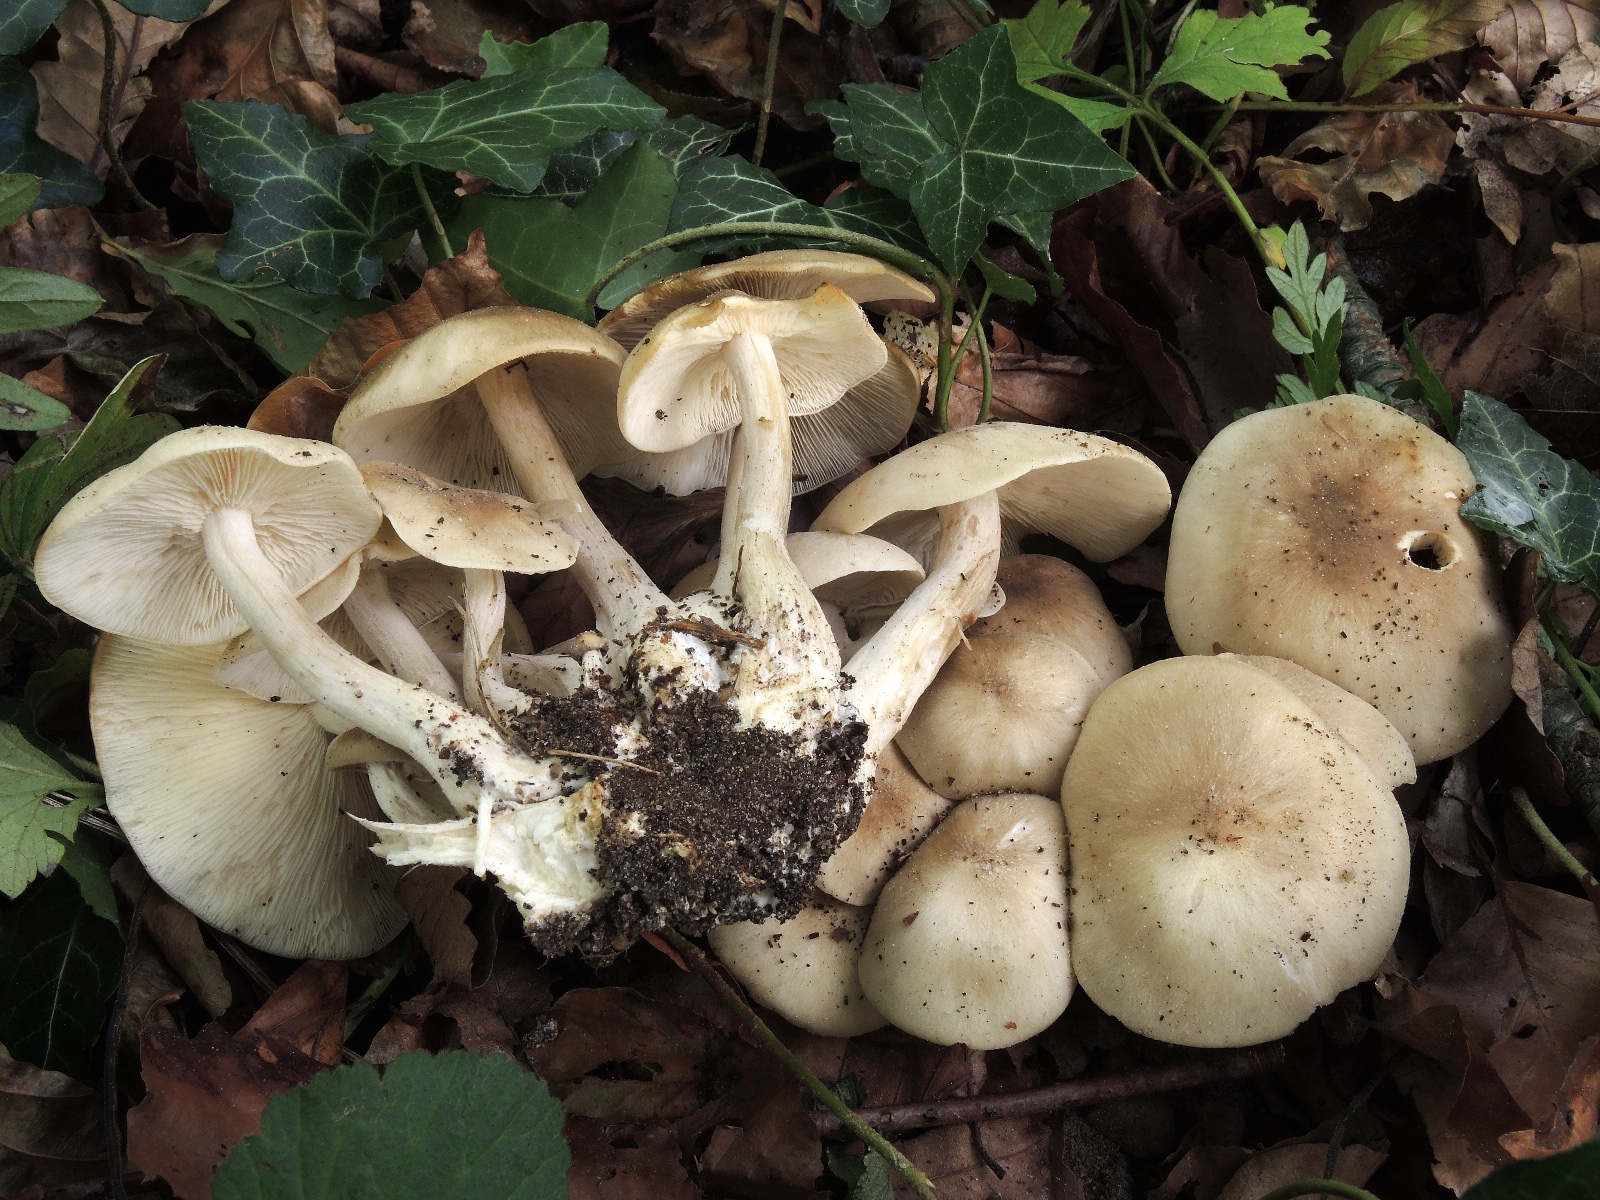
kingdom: Fungi
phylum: Basidiomycota
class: Agaricomycetes
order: Agaricales
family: Lyophyllaceae
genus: Lyophyllum
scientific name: Lyophyllum decastes
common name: Clustered domecap
